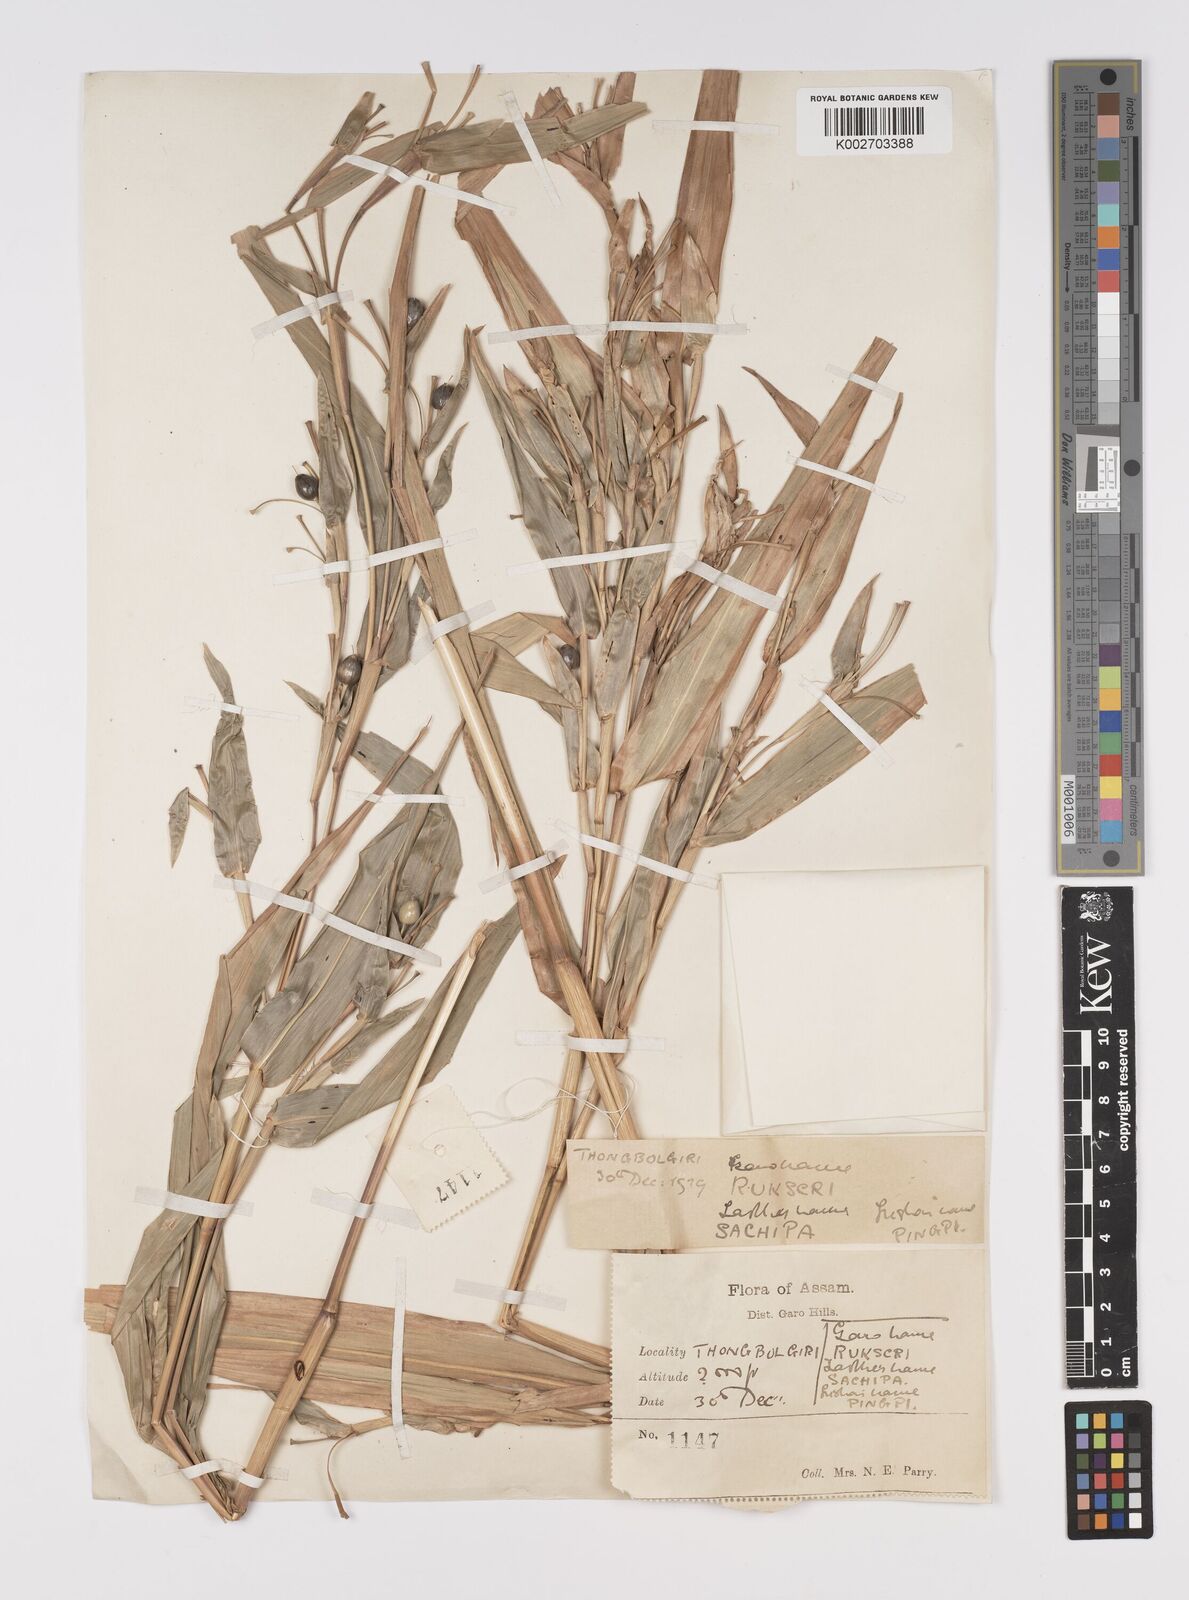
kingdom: Plantae
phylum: Tracheophyta
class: Liliopsida
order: Poales
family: Poaceae
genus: Coix
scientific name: Coix lacryma-jobi
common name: Job's tears
